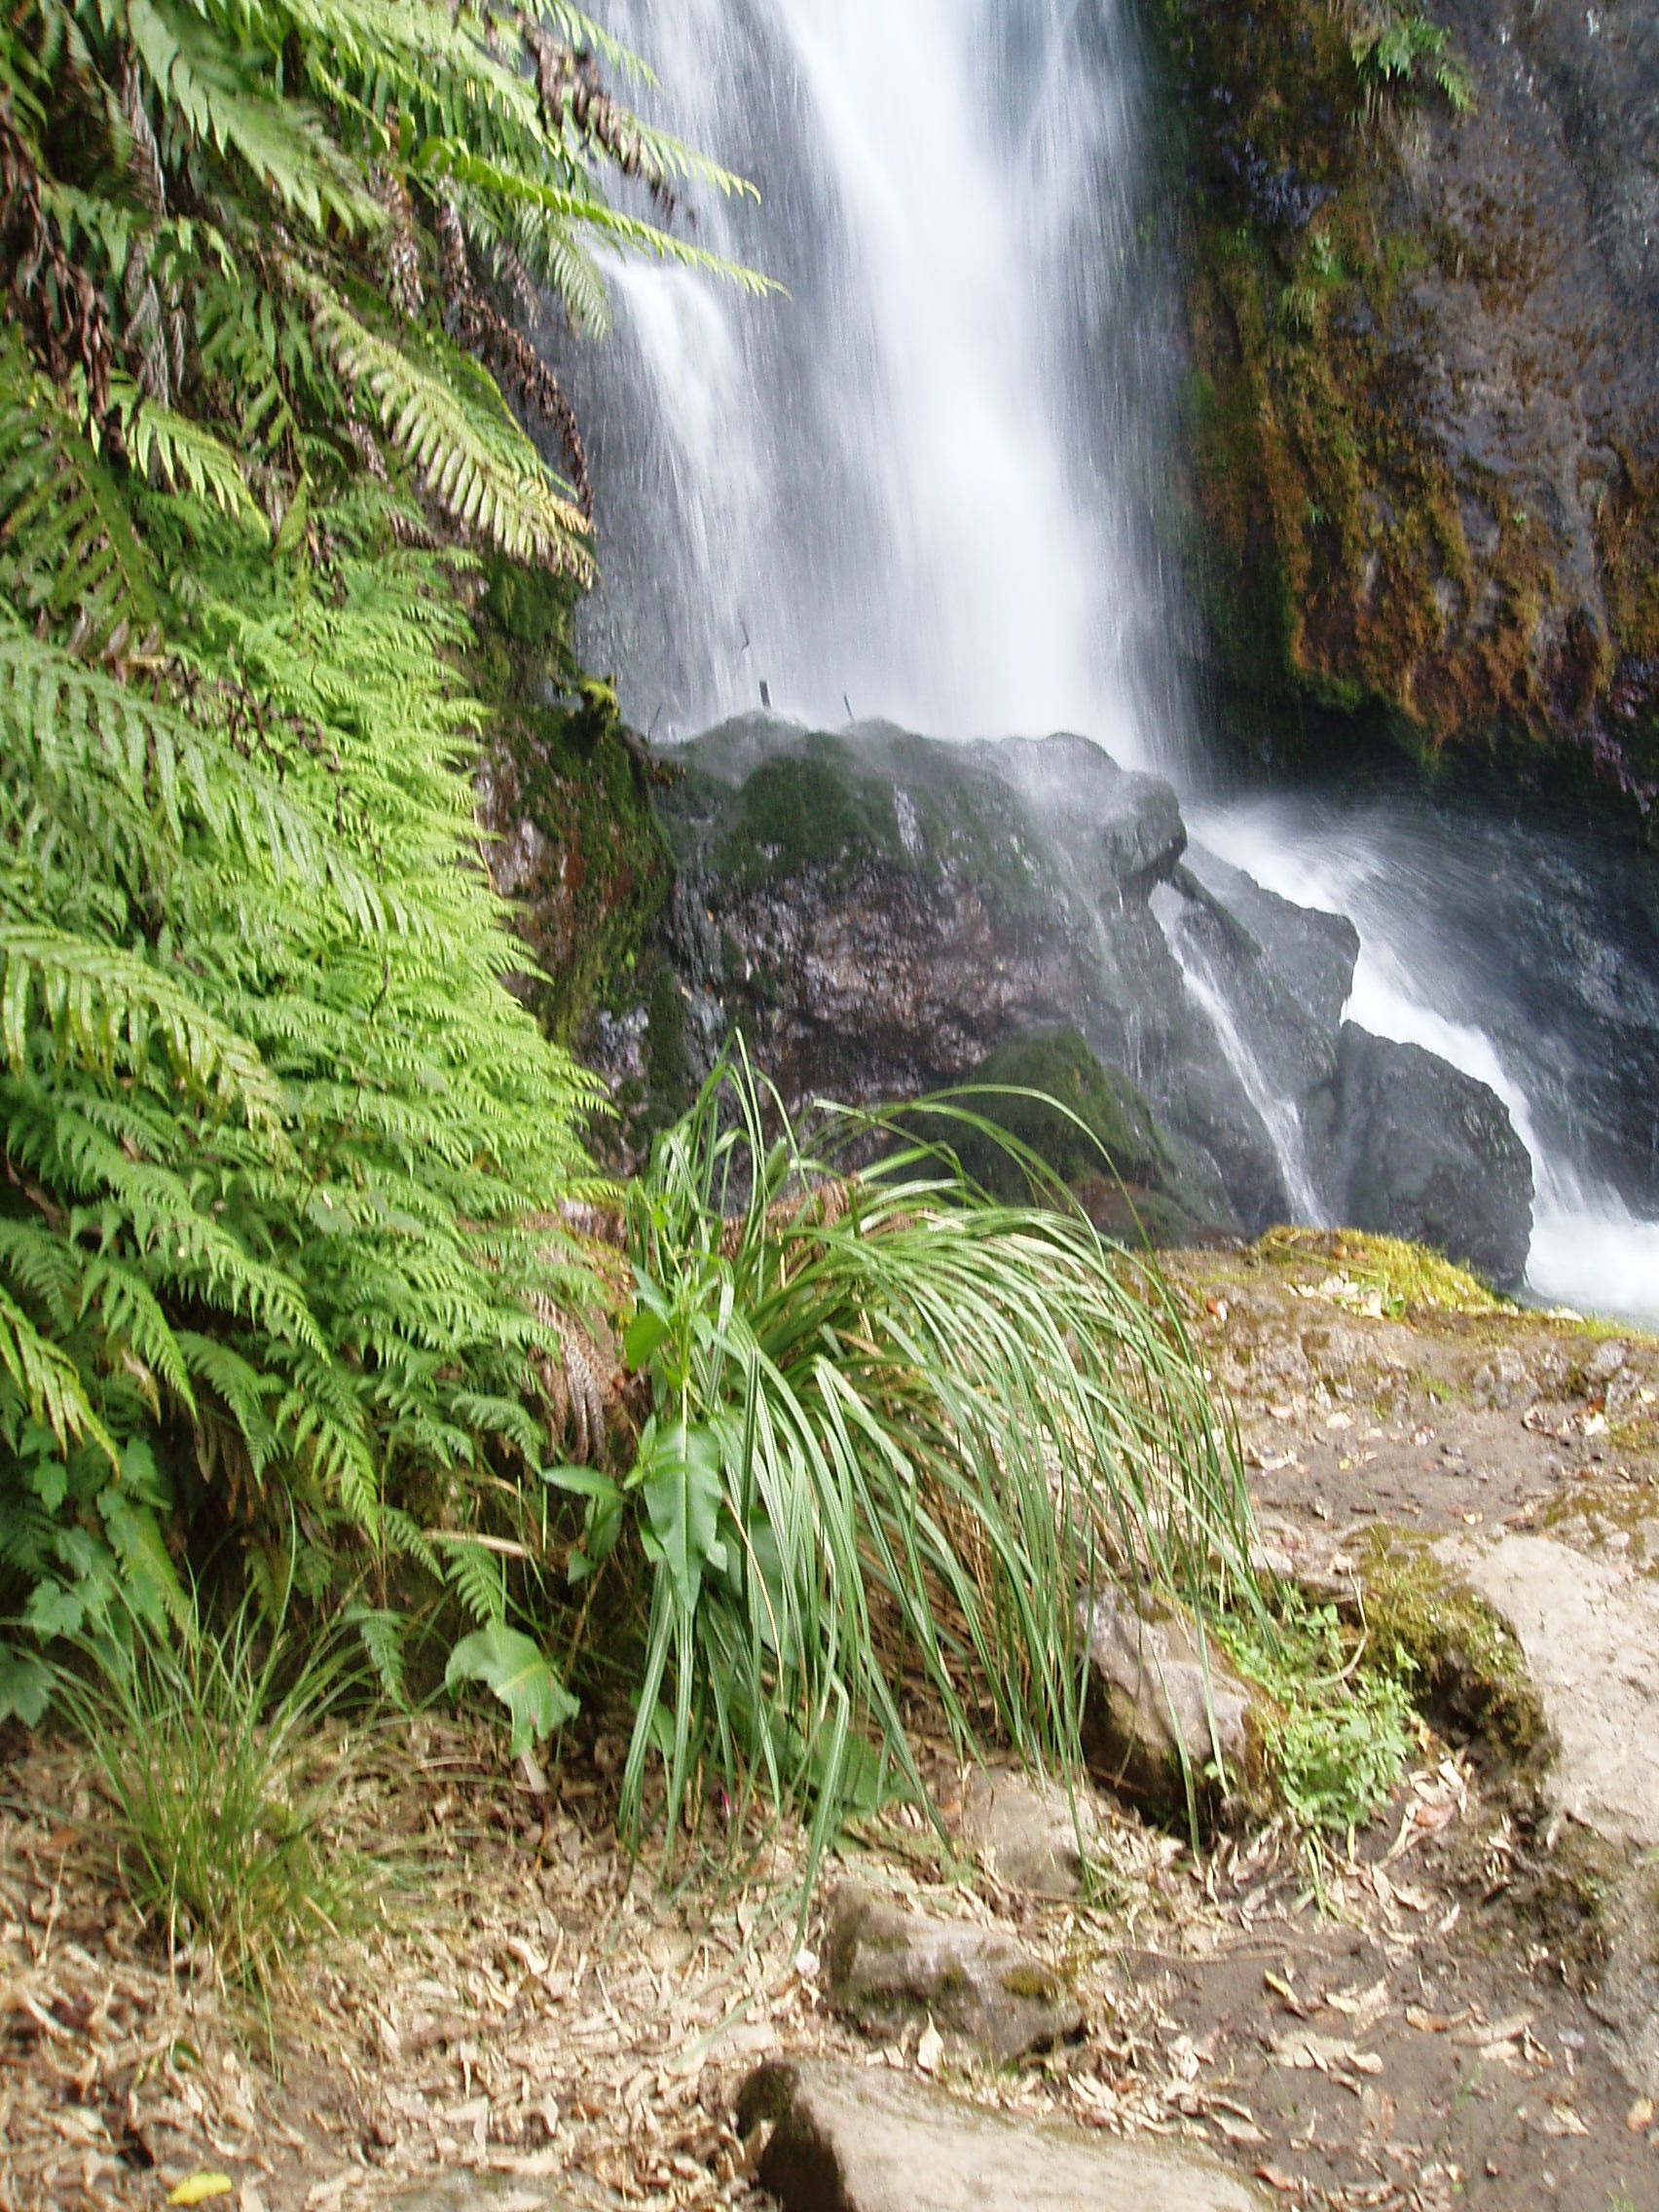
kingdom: Plantae
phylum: Tracheophyta
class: Magnoliopsida
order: Caryophyllales
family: Polygonaceae
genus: Rumex
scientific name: Rumex obtusifolius
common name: Bitter dock
